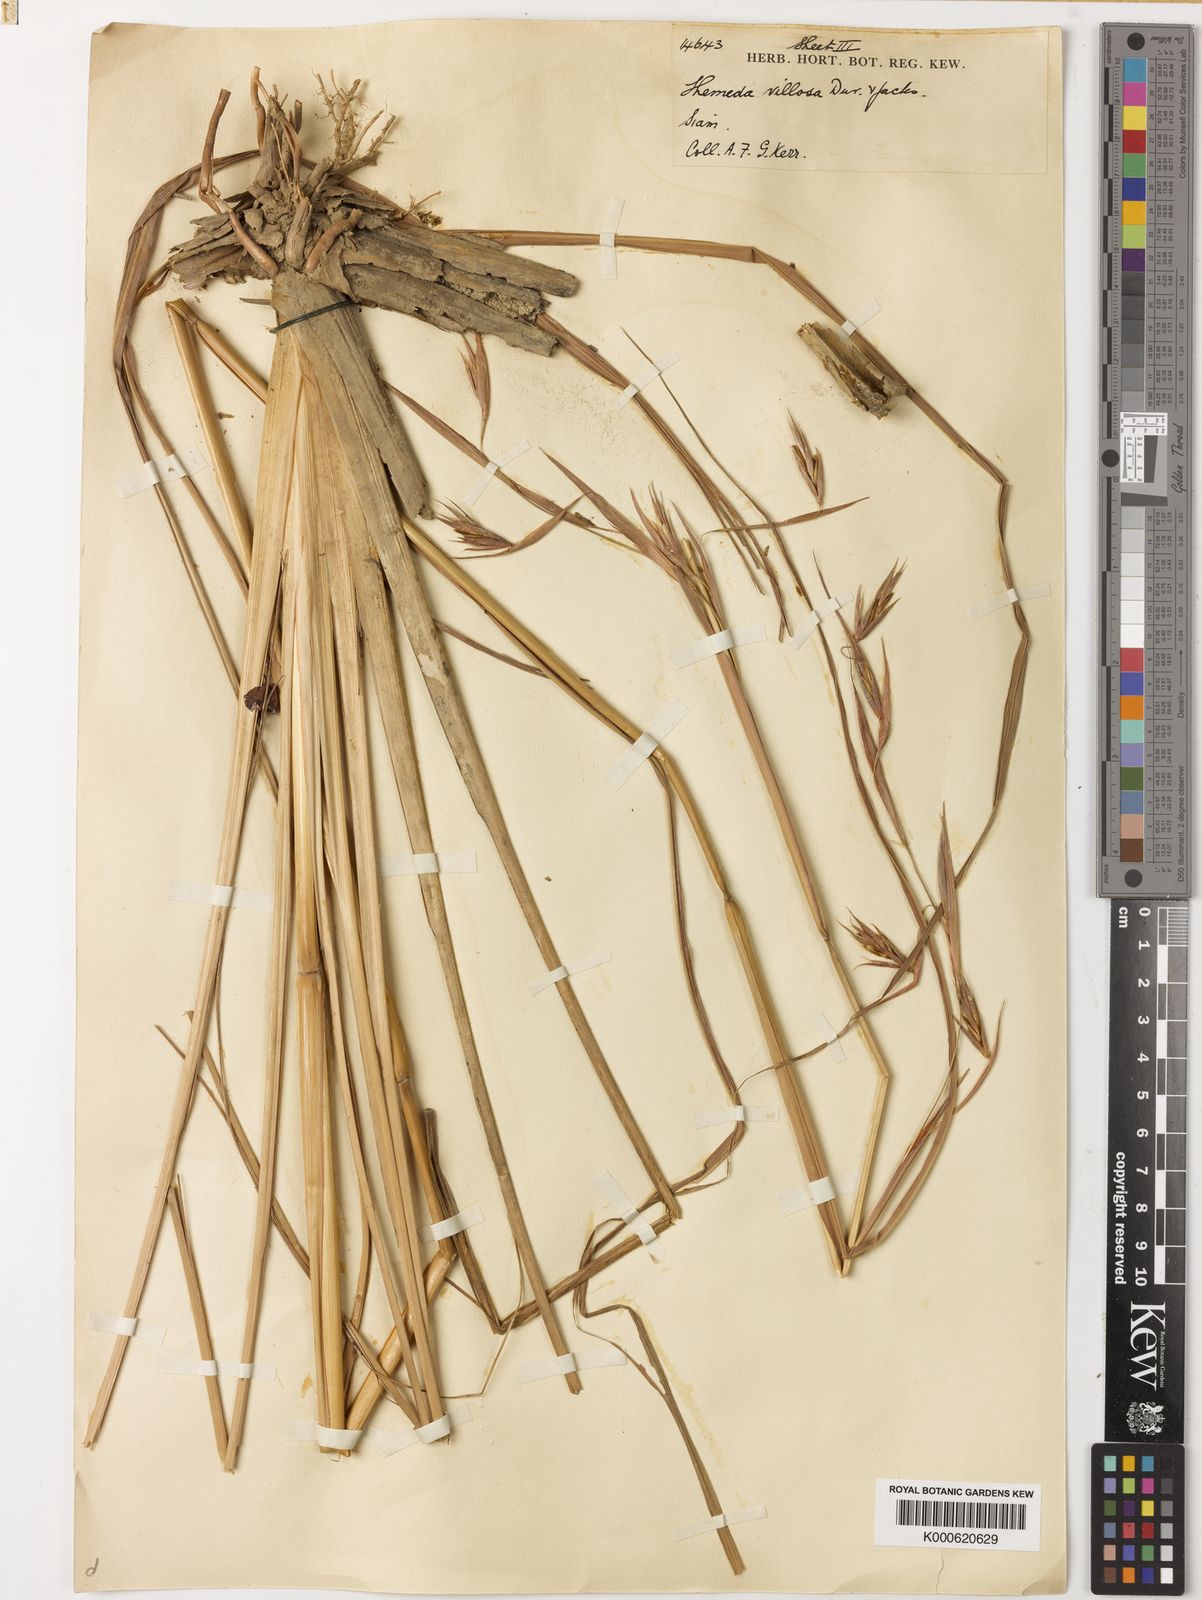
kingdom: Plantae
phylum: Tracheophyta
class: Liliopsida
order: Poales
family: Poaceae
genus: Themeda
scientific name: Themeda villosa
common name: Silky kangaroo grass
